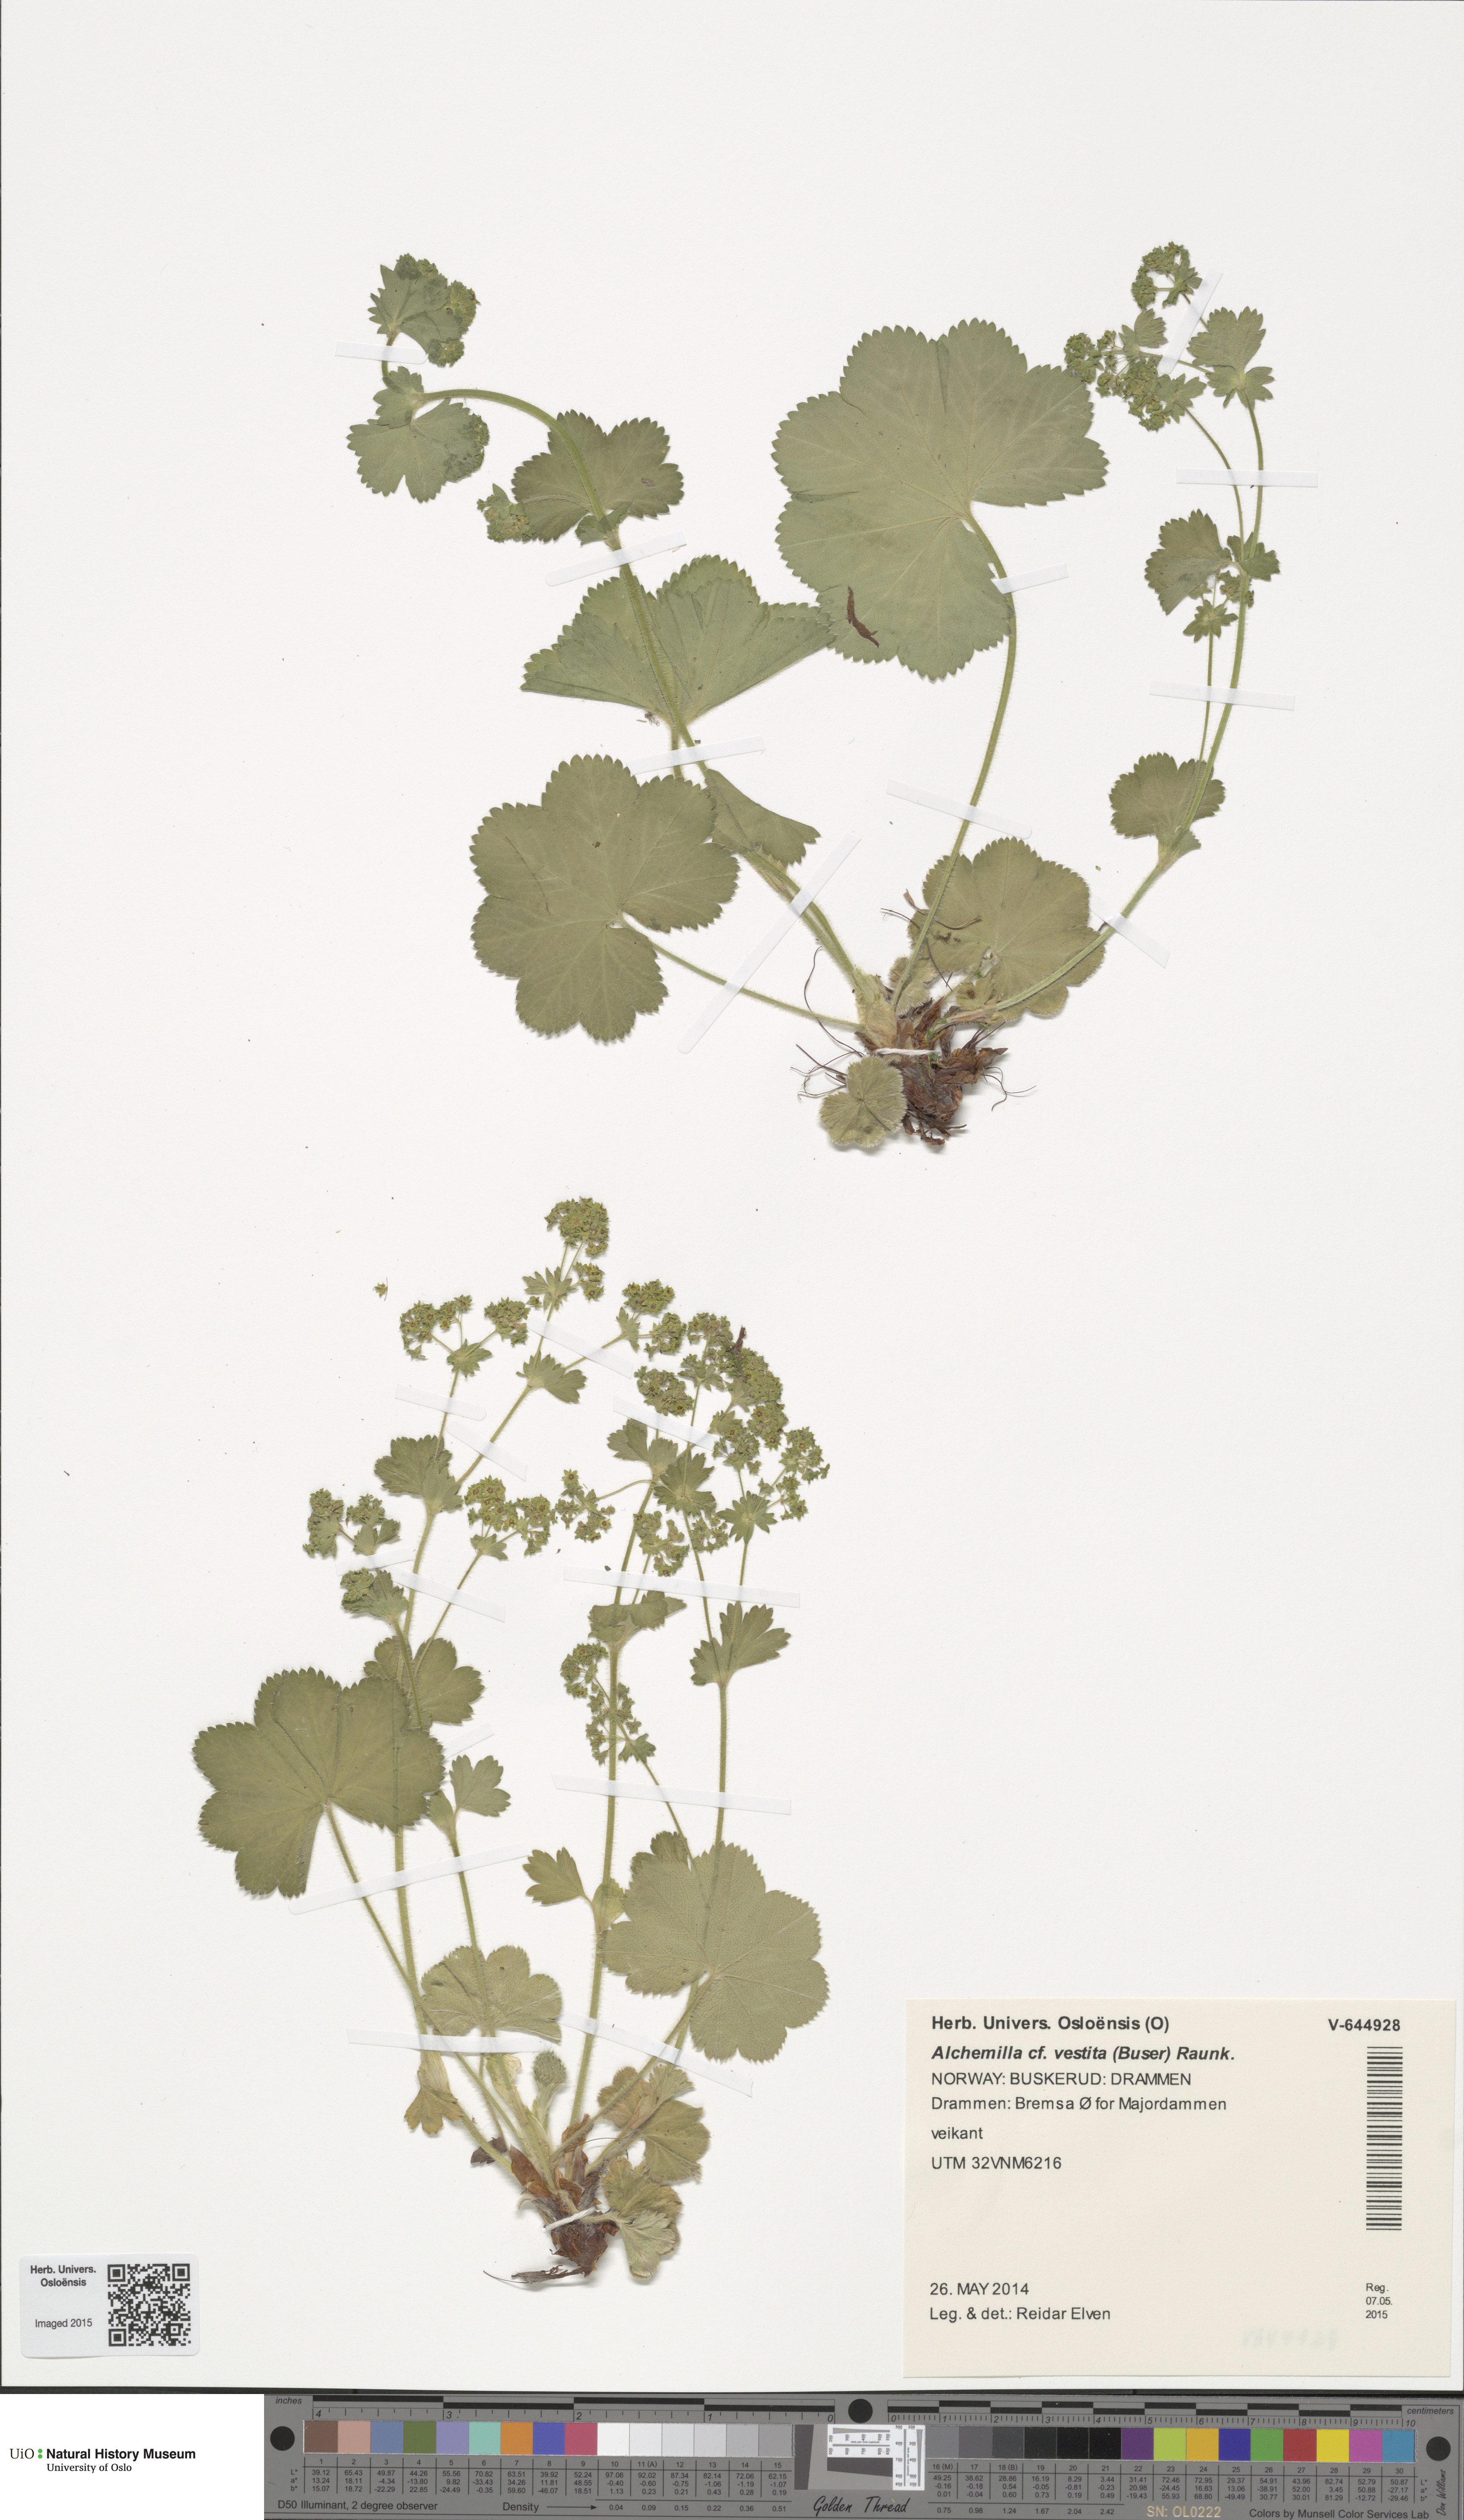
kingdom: Plantae
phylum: Tracheophyta
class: Magnoliopsida
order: Rosales
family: Rosaceae
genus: Alchemilla
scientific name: Alchemilla filicaulis
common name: Hairy lady's-mantle
